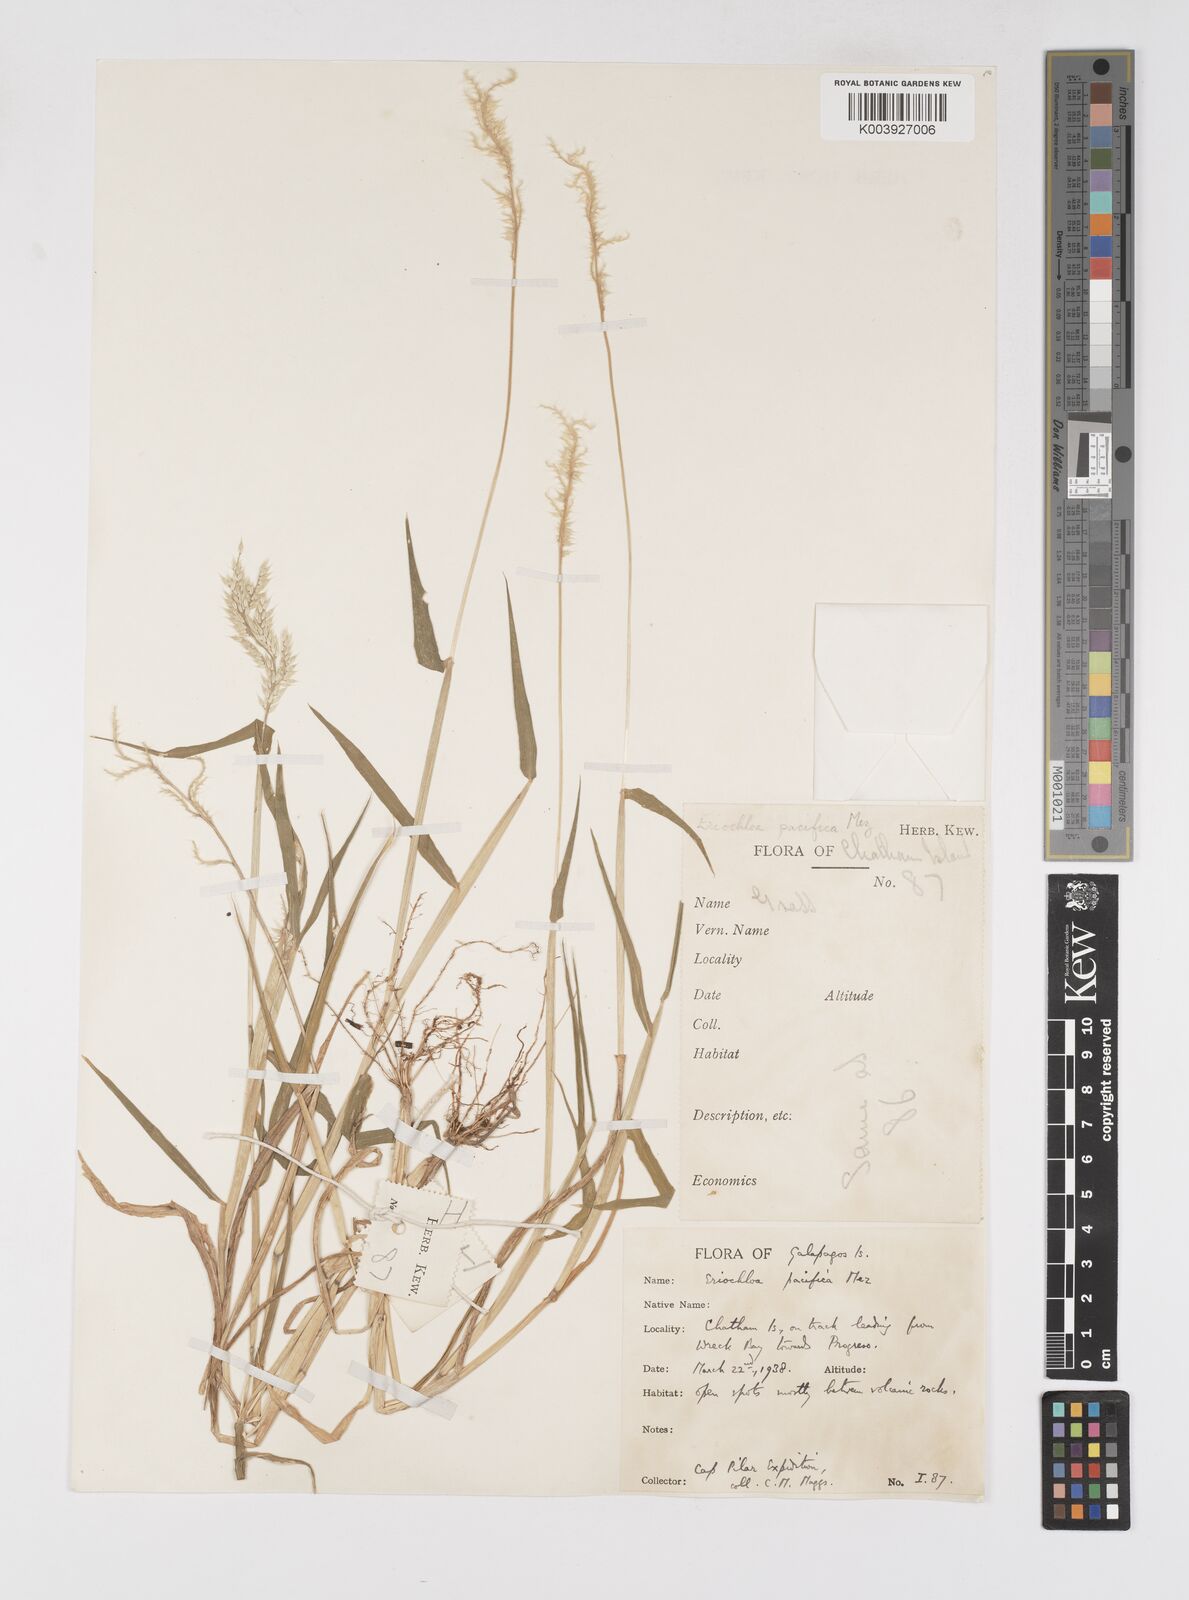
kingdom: Plantae
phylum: Tracheophyta
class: Liliopsida
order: Poales
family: Poaceae
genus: Eriochloa
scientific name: Eriochloa pacifica
